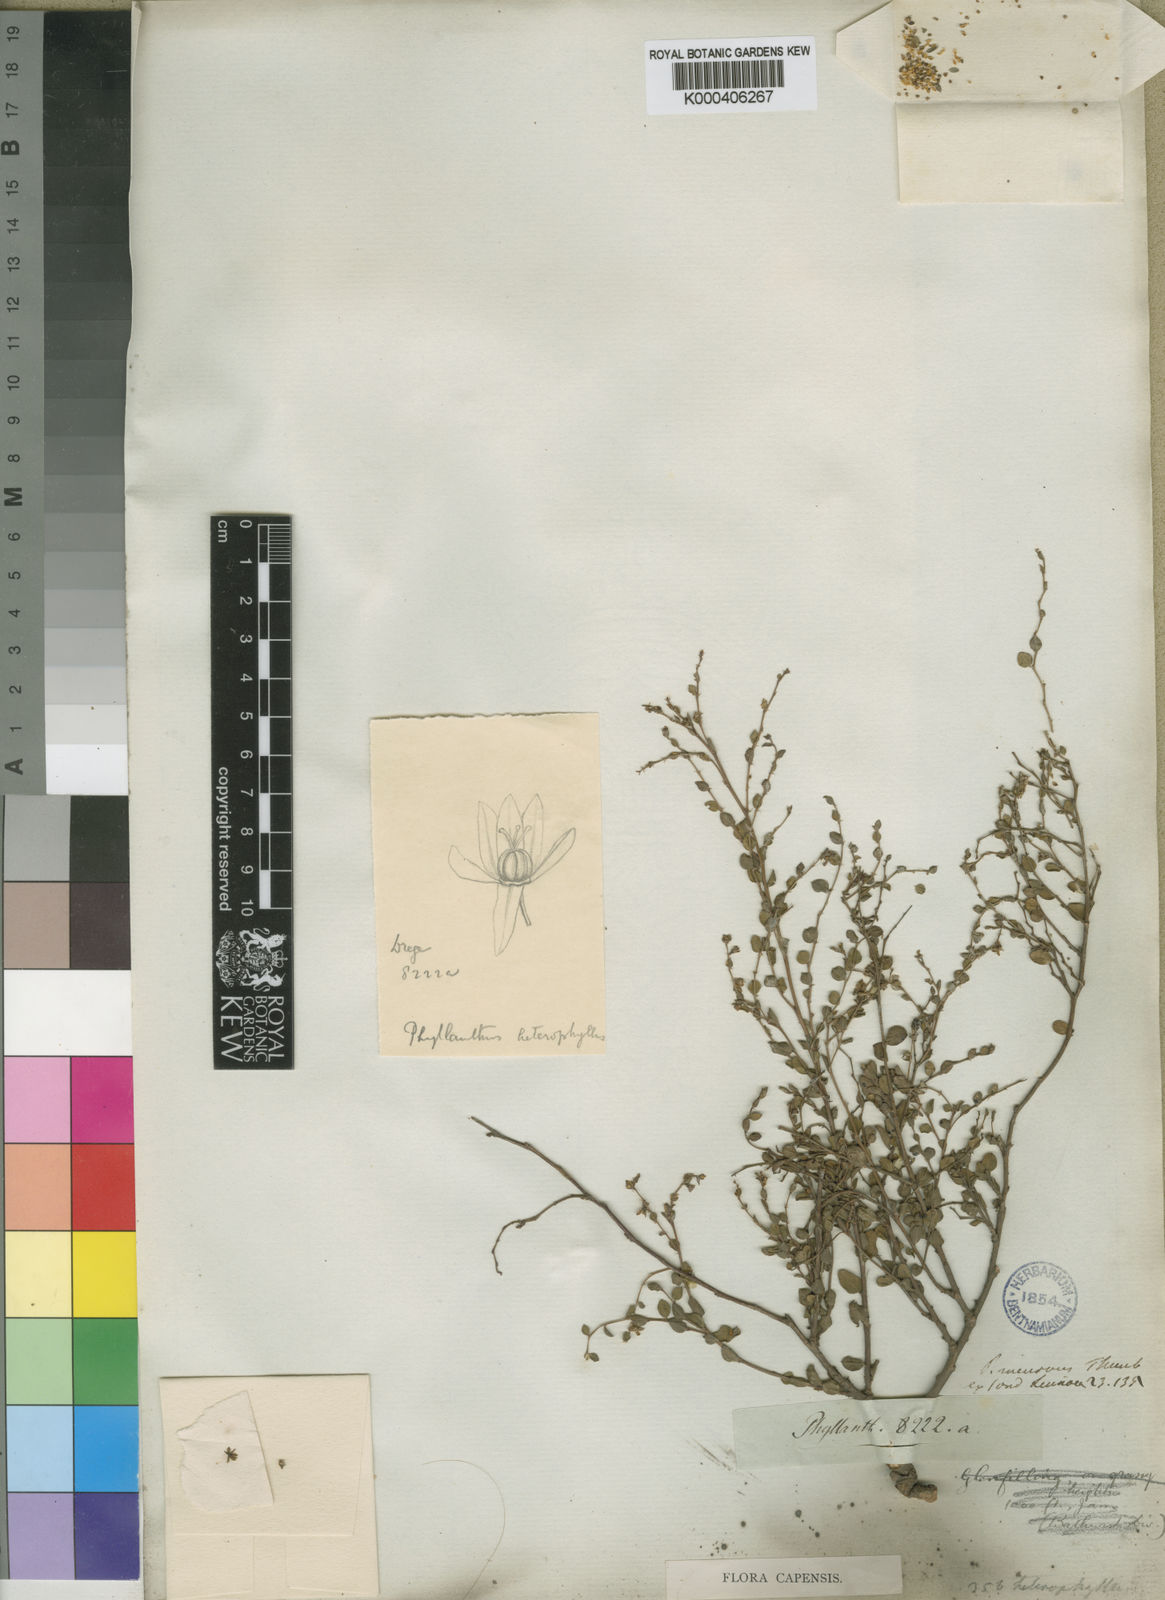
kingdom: Plantae
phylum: Tracheophyta
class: Magnoliopsida
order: Malpighiales
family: Phyllanthaceae
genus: Phyllanthus
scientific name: Phyllanthus
